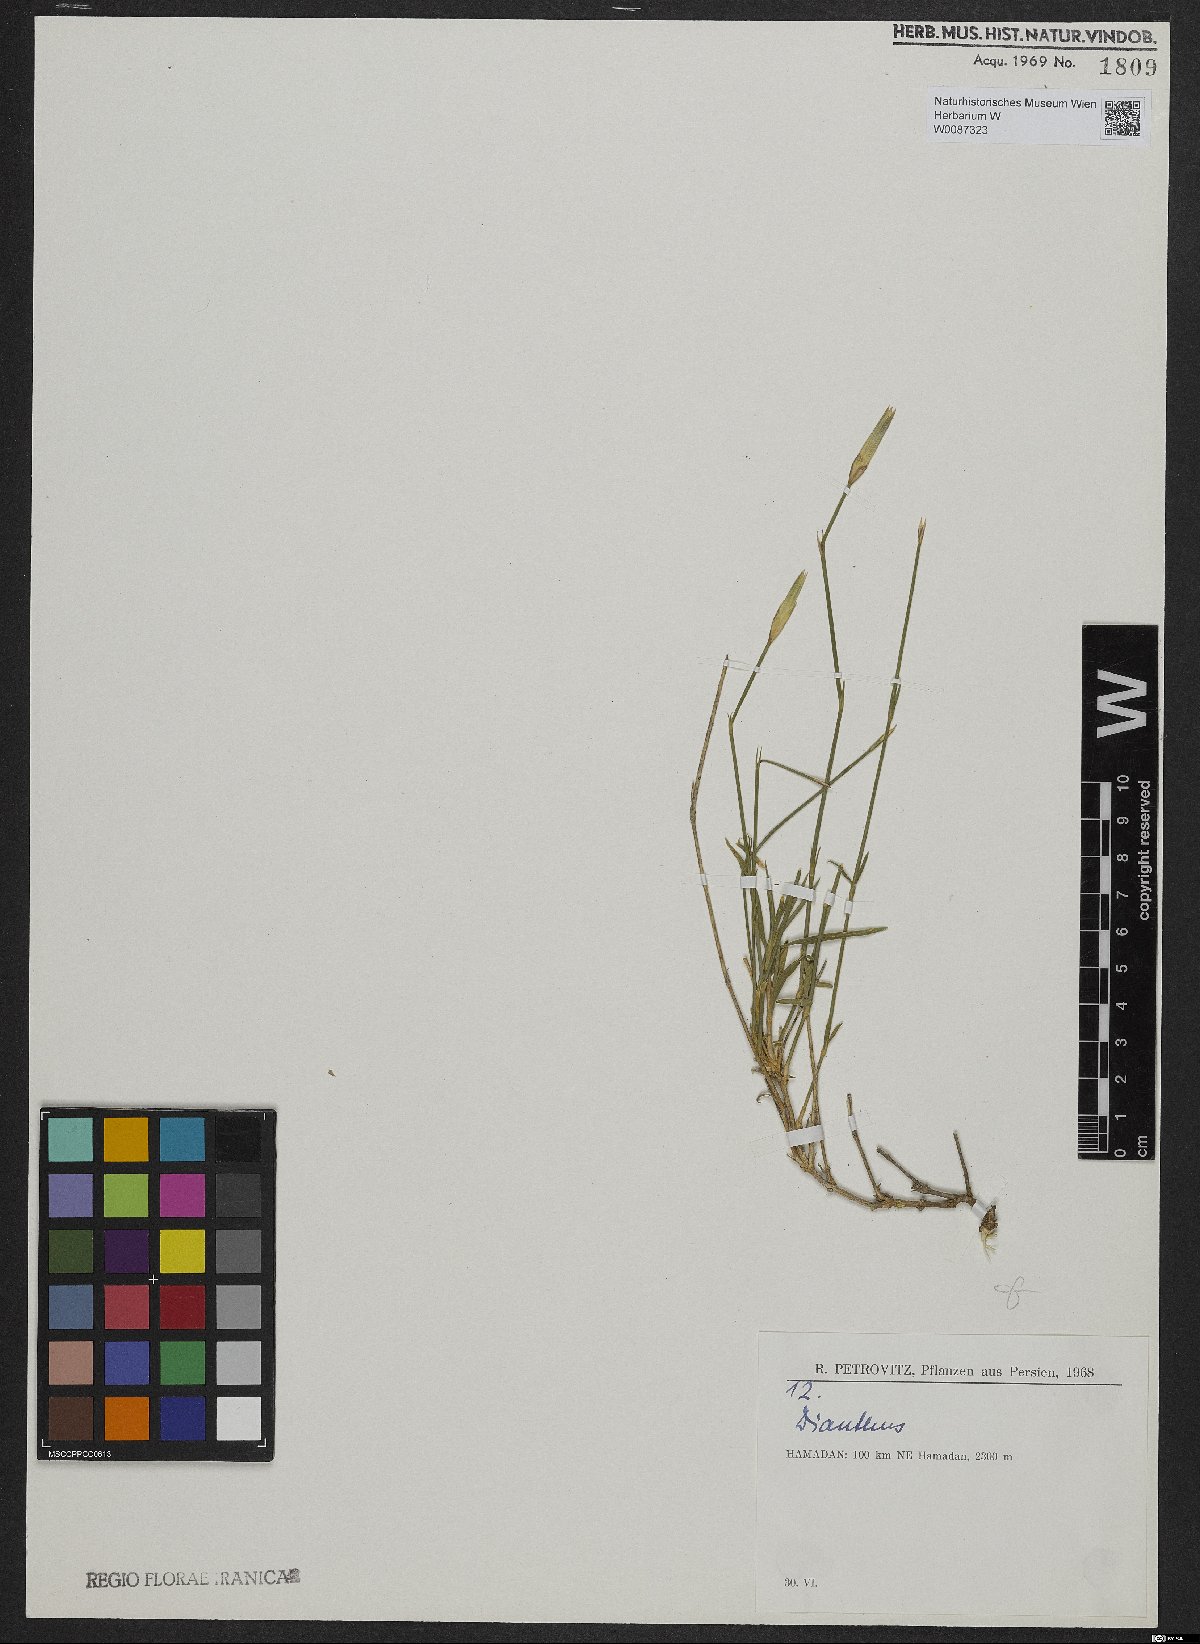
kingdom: Plantae
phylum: Tracheophyta
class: Magnoliopsida
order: Caryophyllales
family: Caryophyllaceae
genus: Dianthus
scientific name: Dianthus
